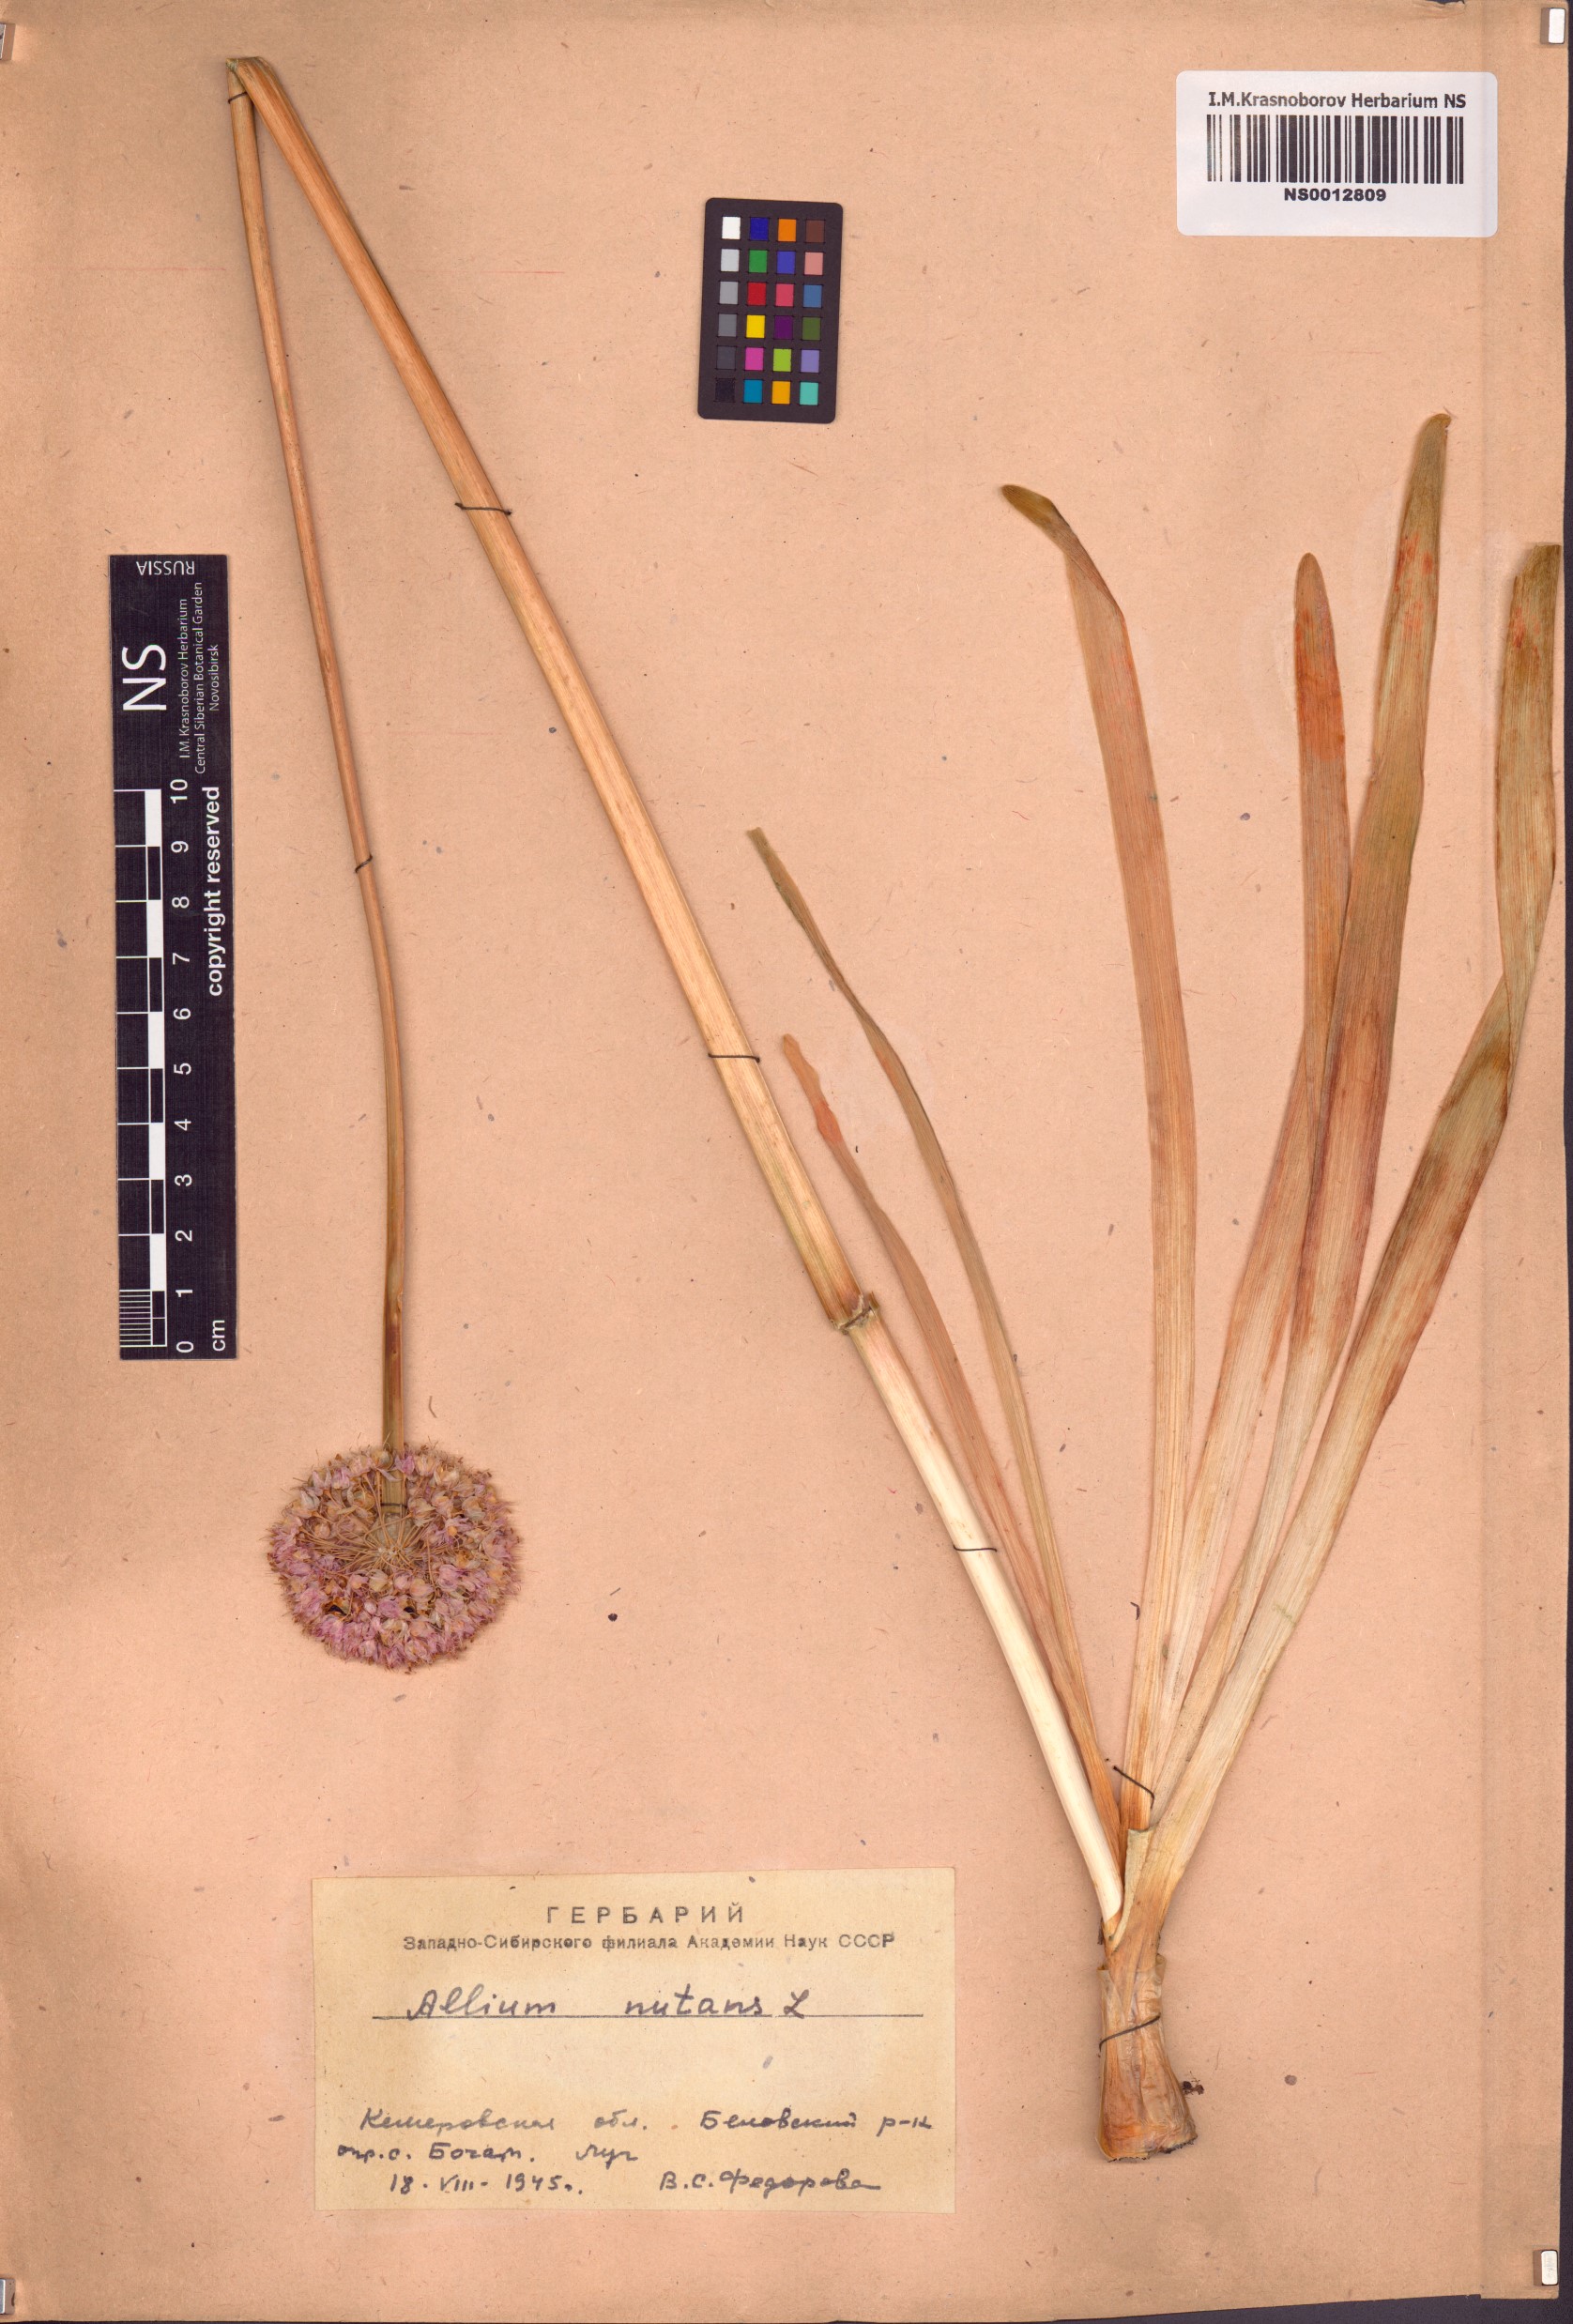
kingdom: Plantae
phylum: Tracheophyta
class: Liliopsida
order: Asparagales
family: Amaryllidaceae
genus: Allium
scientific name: Allium nutans
